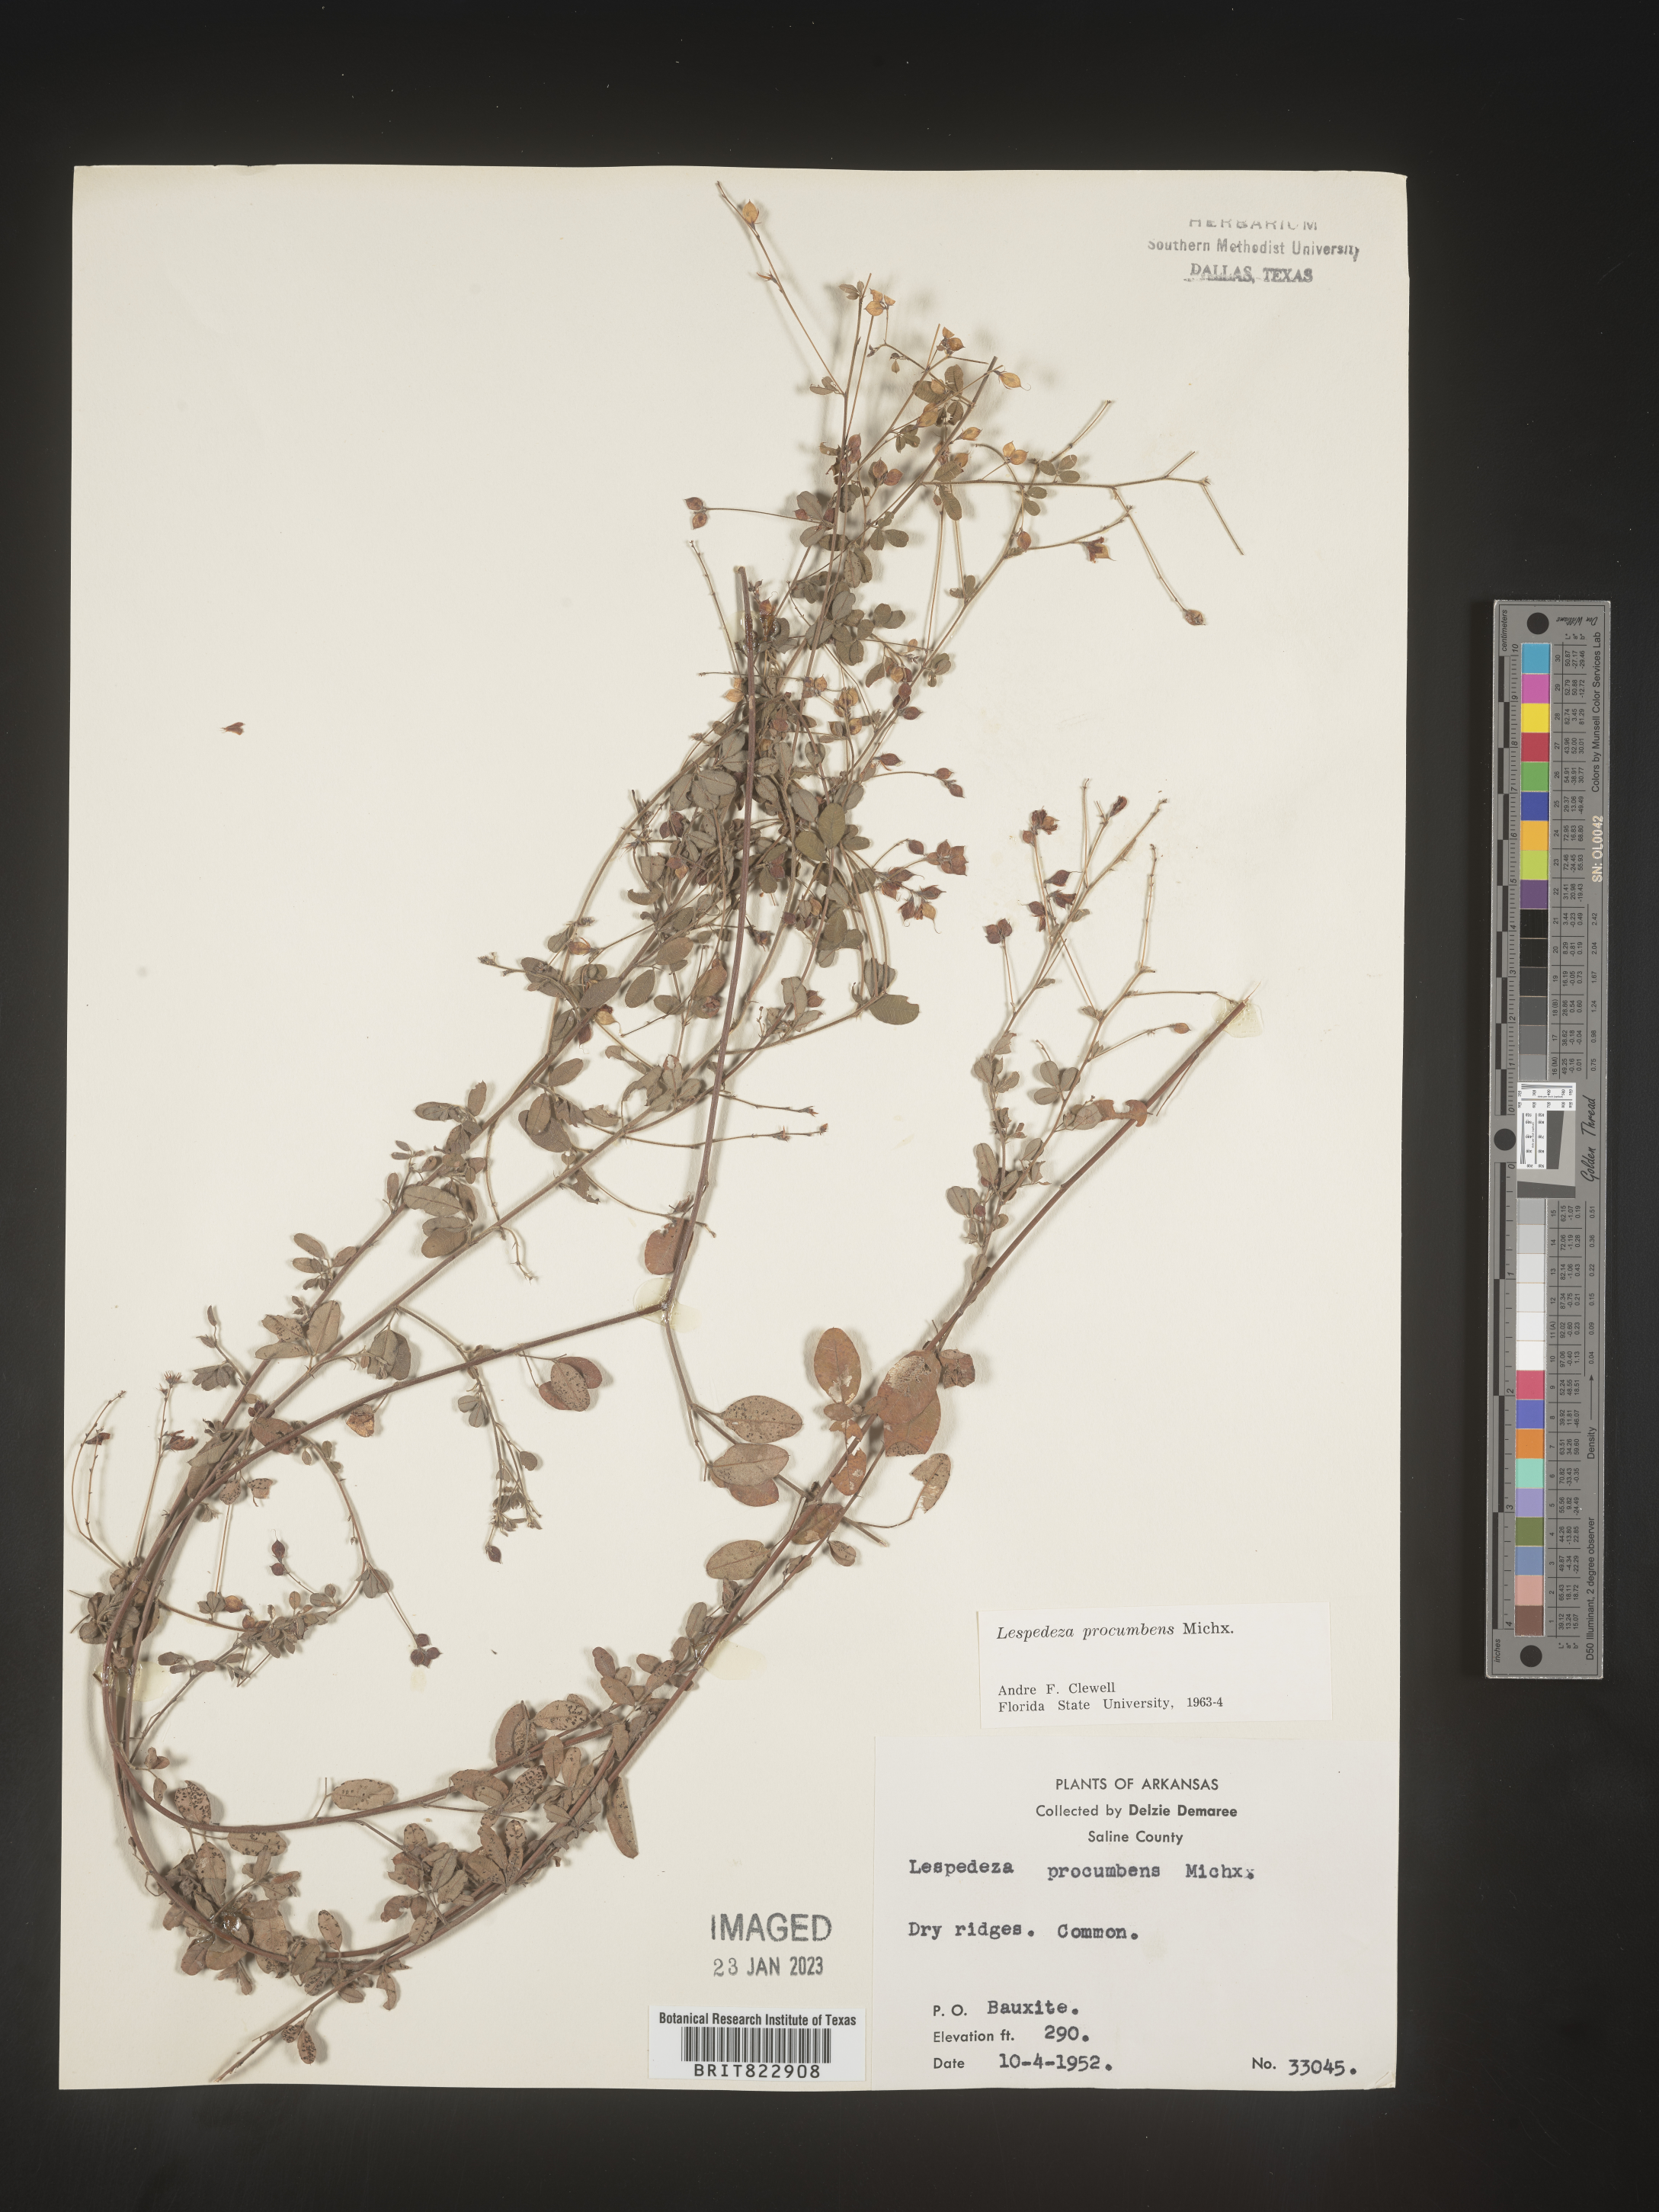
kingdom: Plantae
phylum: Tracheophyta
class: Magnoliopsida
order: Fabales
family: Fabaceae
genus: Lespedeza
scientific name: Lespedeza procumbens
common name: Downy trailing bush-clover
